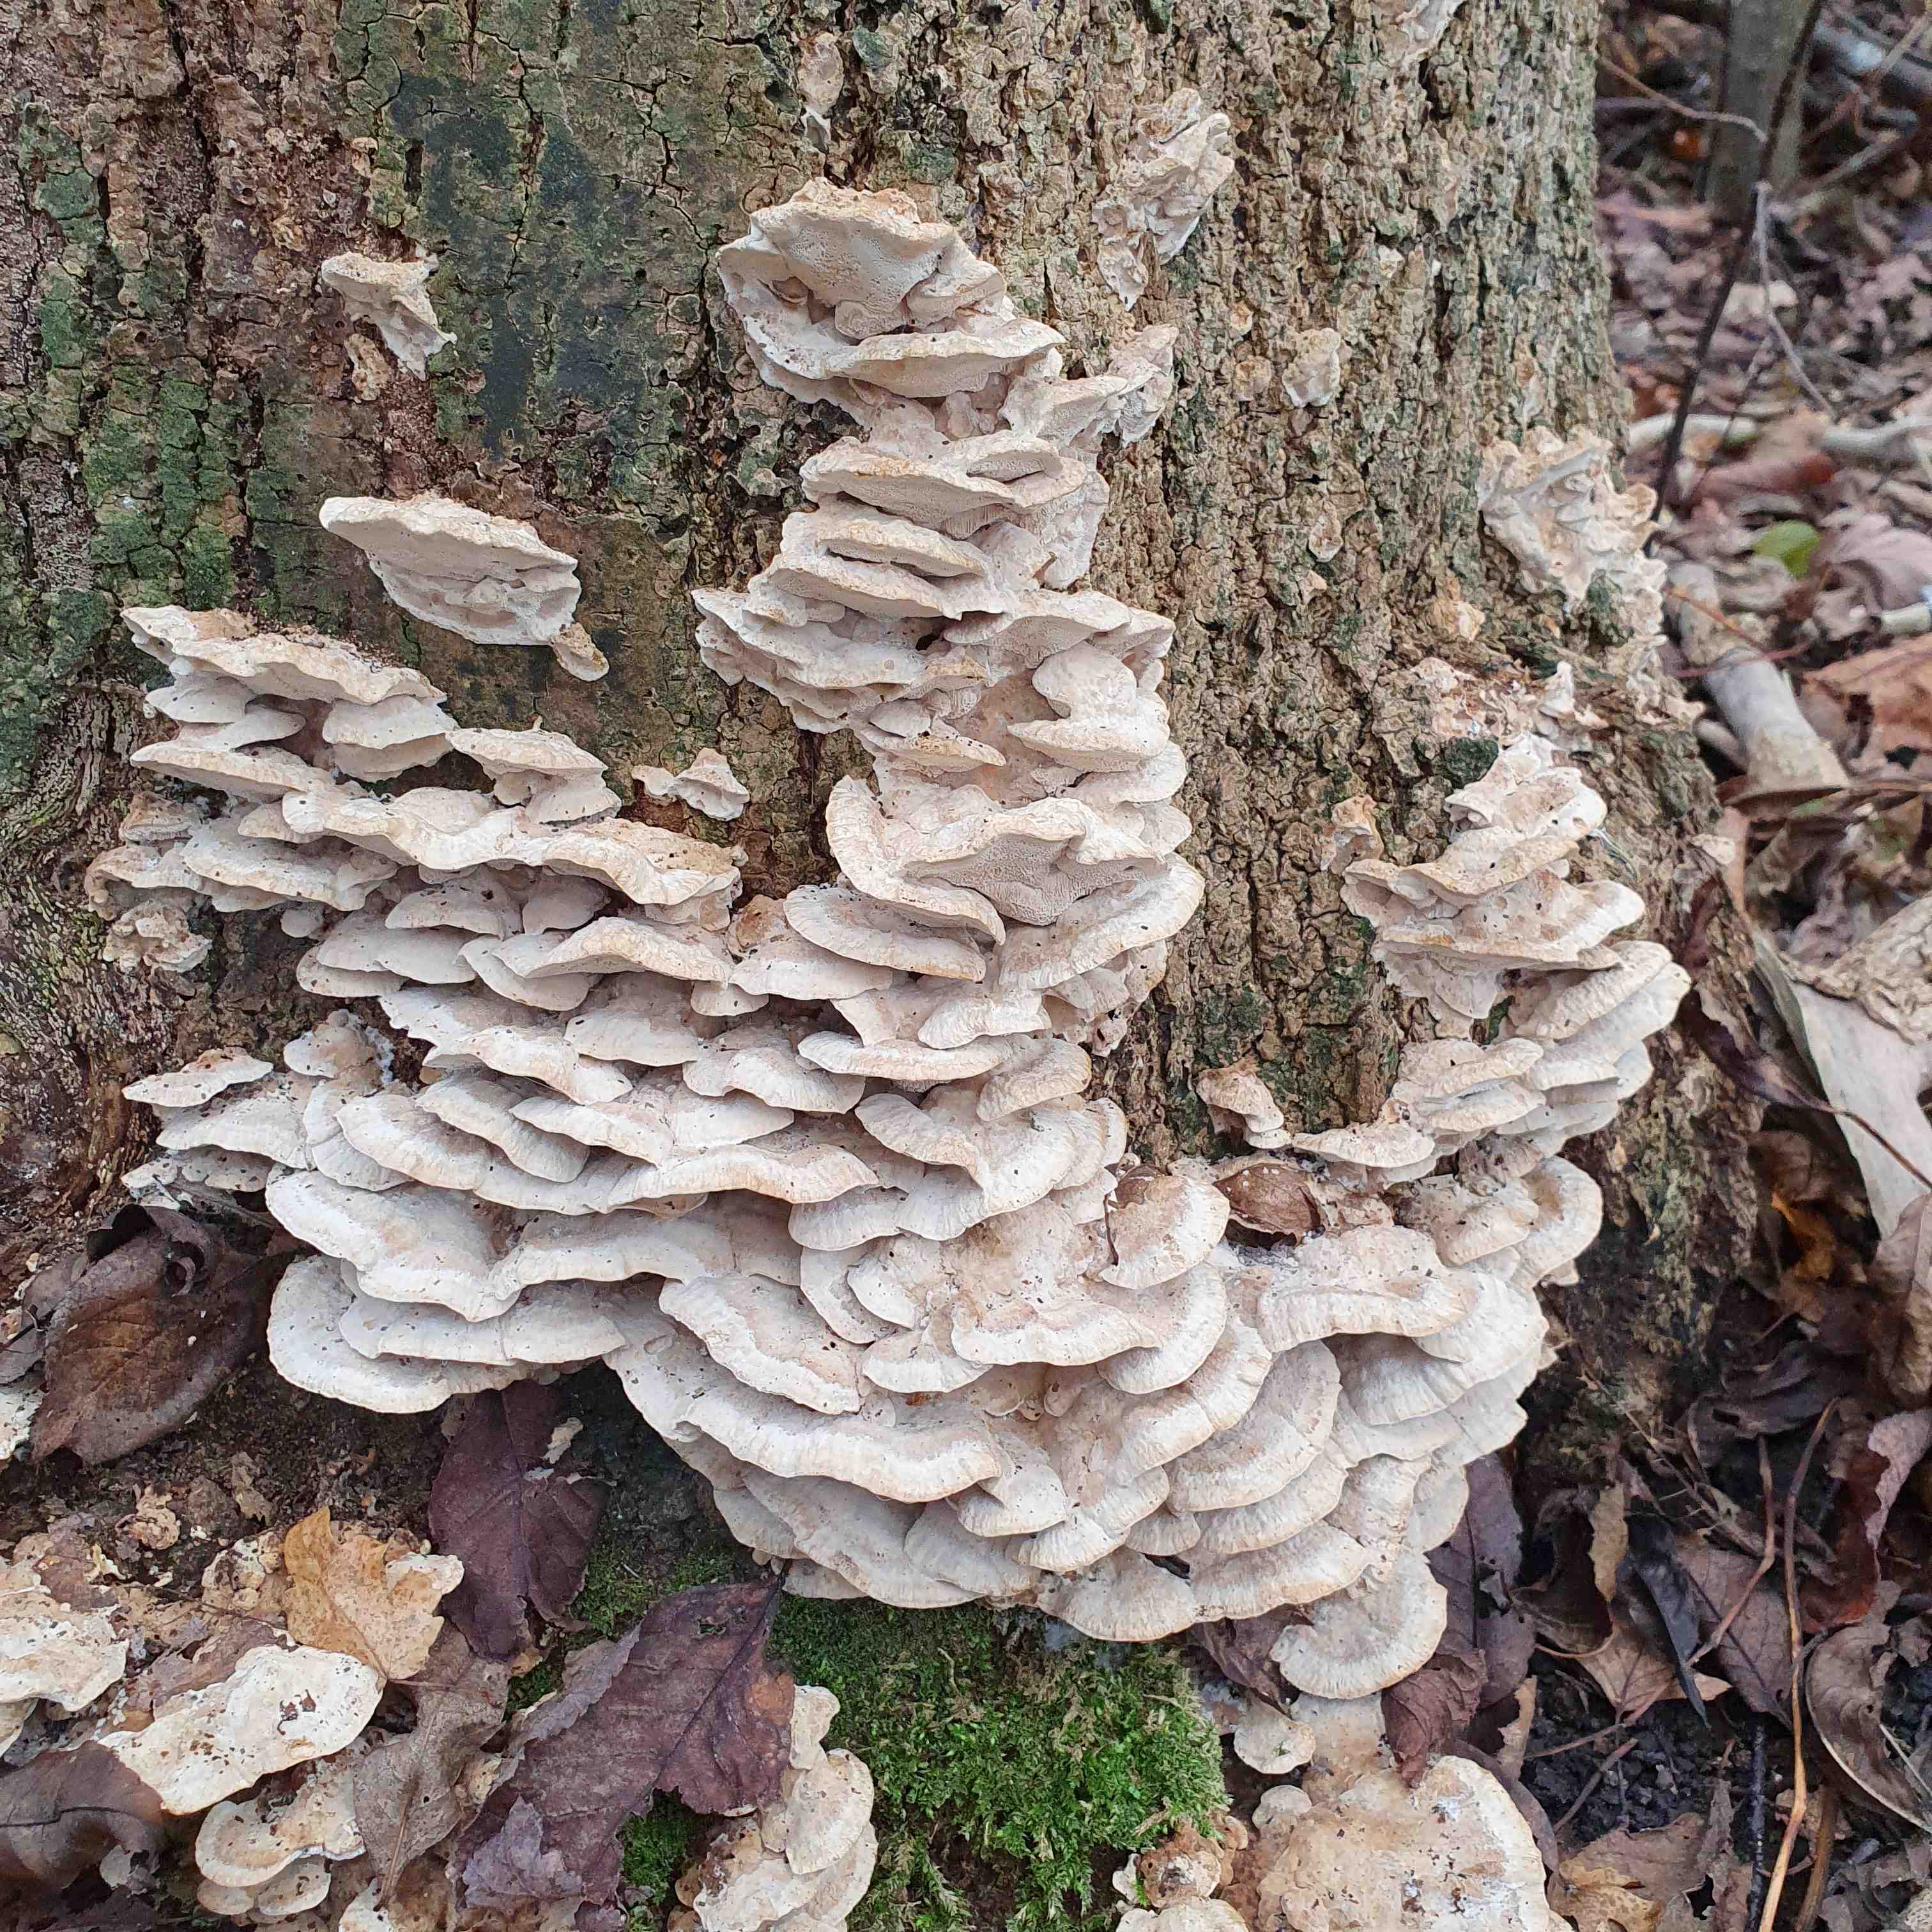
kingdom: Fungi
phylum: Basidiomycota
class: Agaricomycetes
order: Polyporales
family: Phanerochaetaceae
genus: Bjerkandera
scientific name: Bjerkandera fumosa
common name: grågul sodporesvamp
